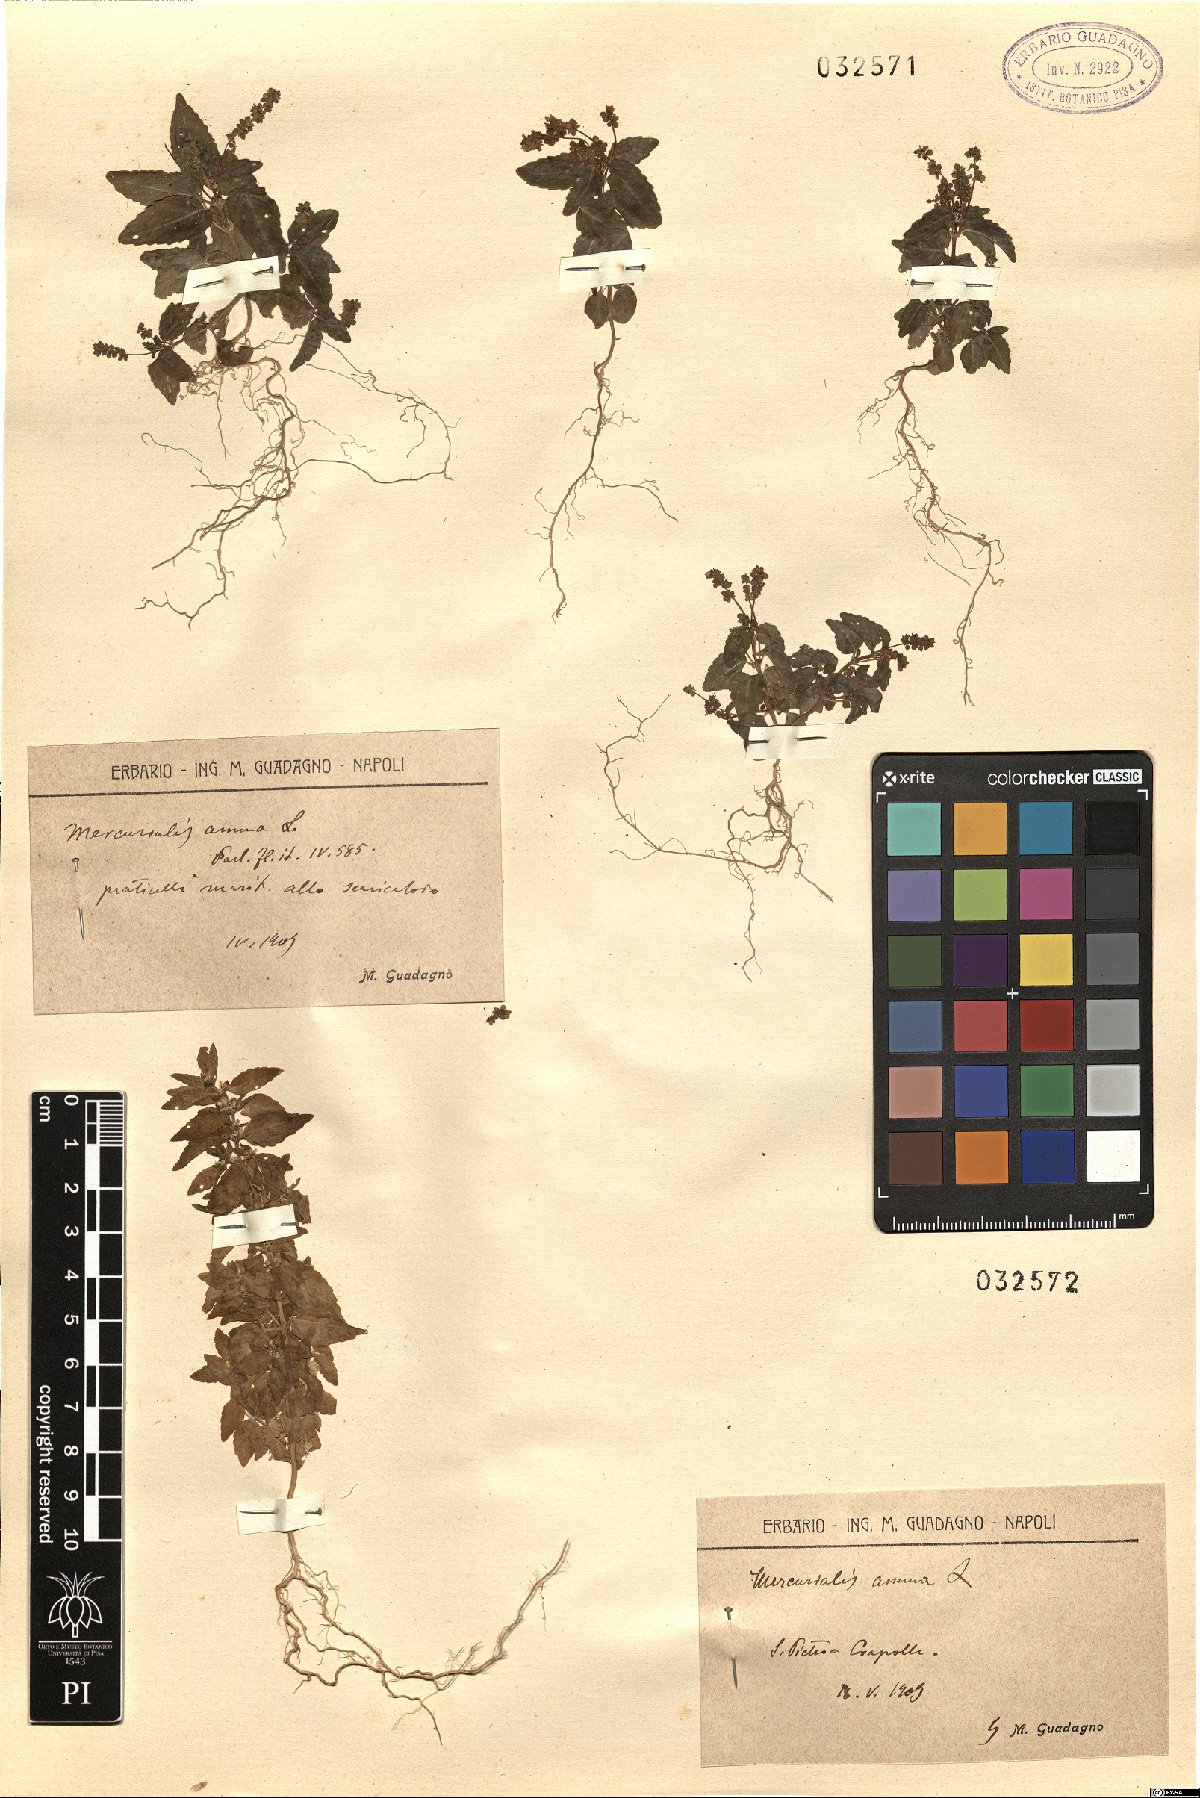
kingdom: Plantae
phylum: Tracheophyta
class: Magnoliopsida
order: Malpighiales
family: Euphorbiaceae
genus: Mercurialis
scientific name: Mercurialis annua
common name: Annual mercury
